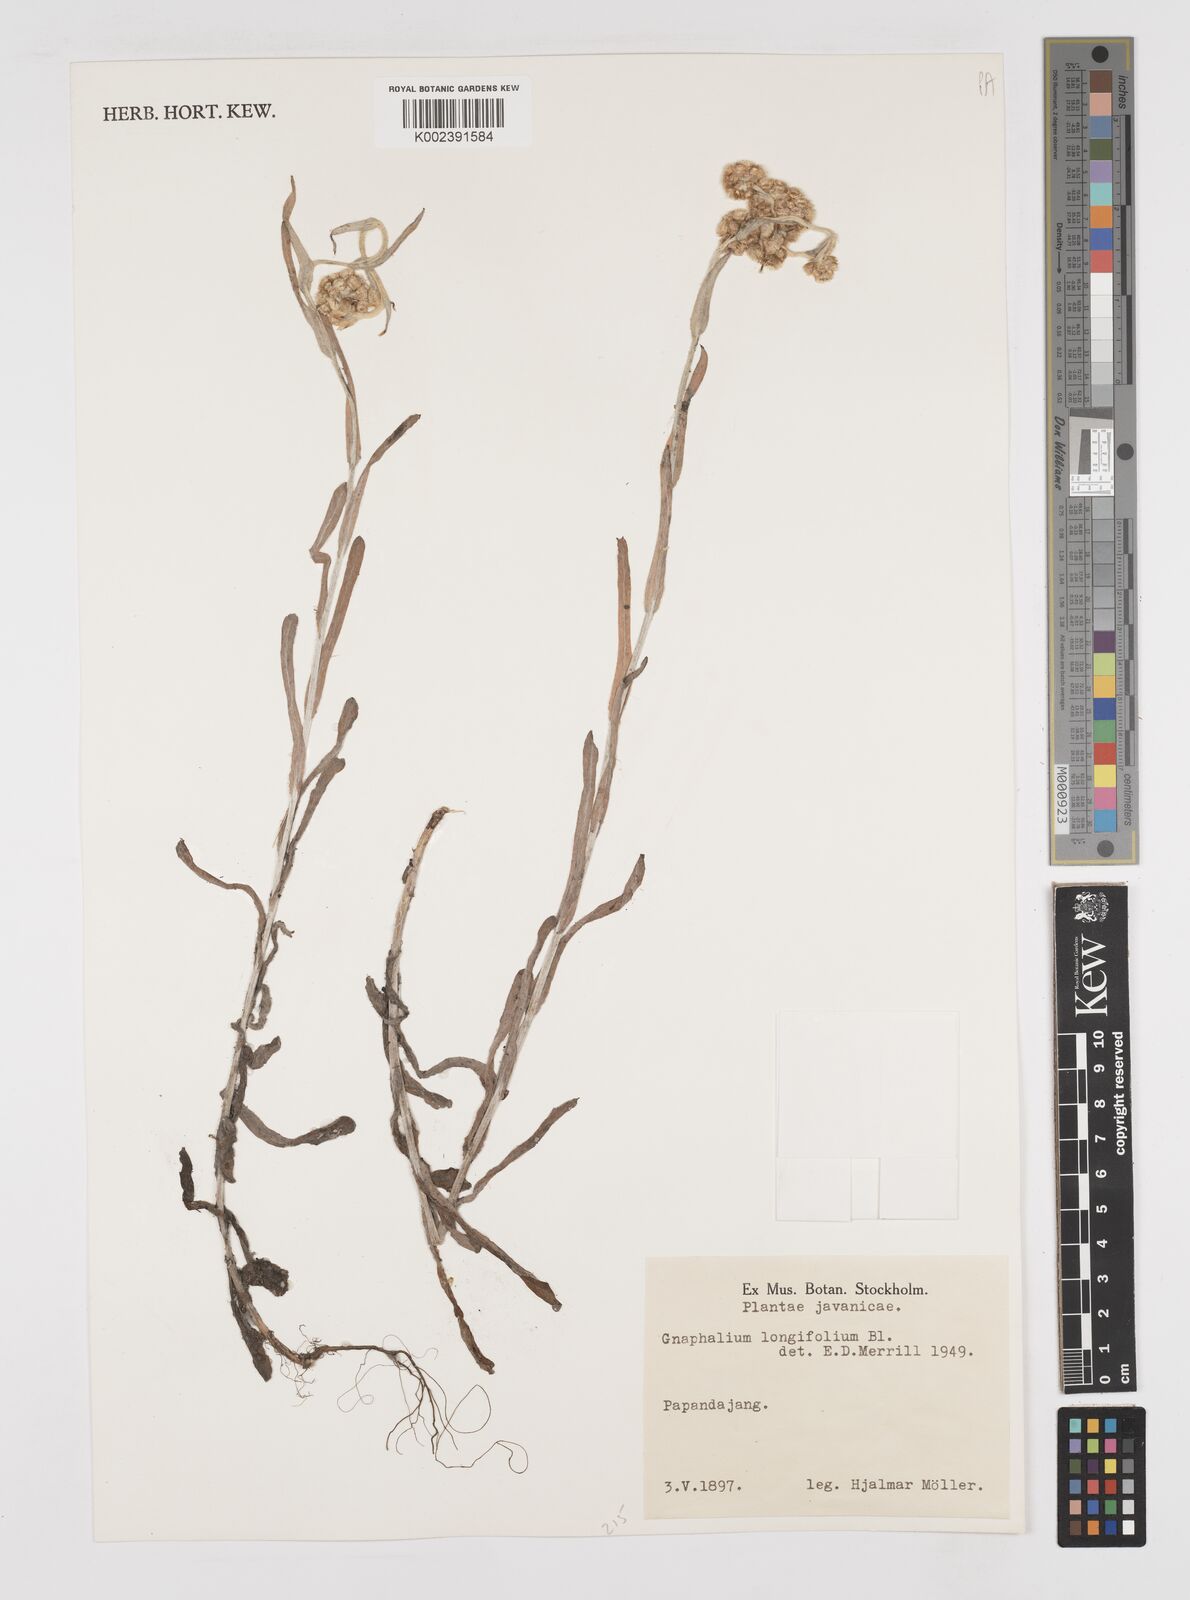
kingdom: Plantae
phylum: Tracheophyta
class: Magnoliopsida
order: Asterales
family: Asteraceae
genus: Anaphalis
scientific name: Anaphalis longifolia
